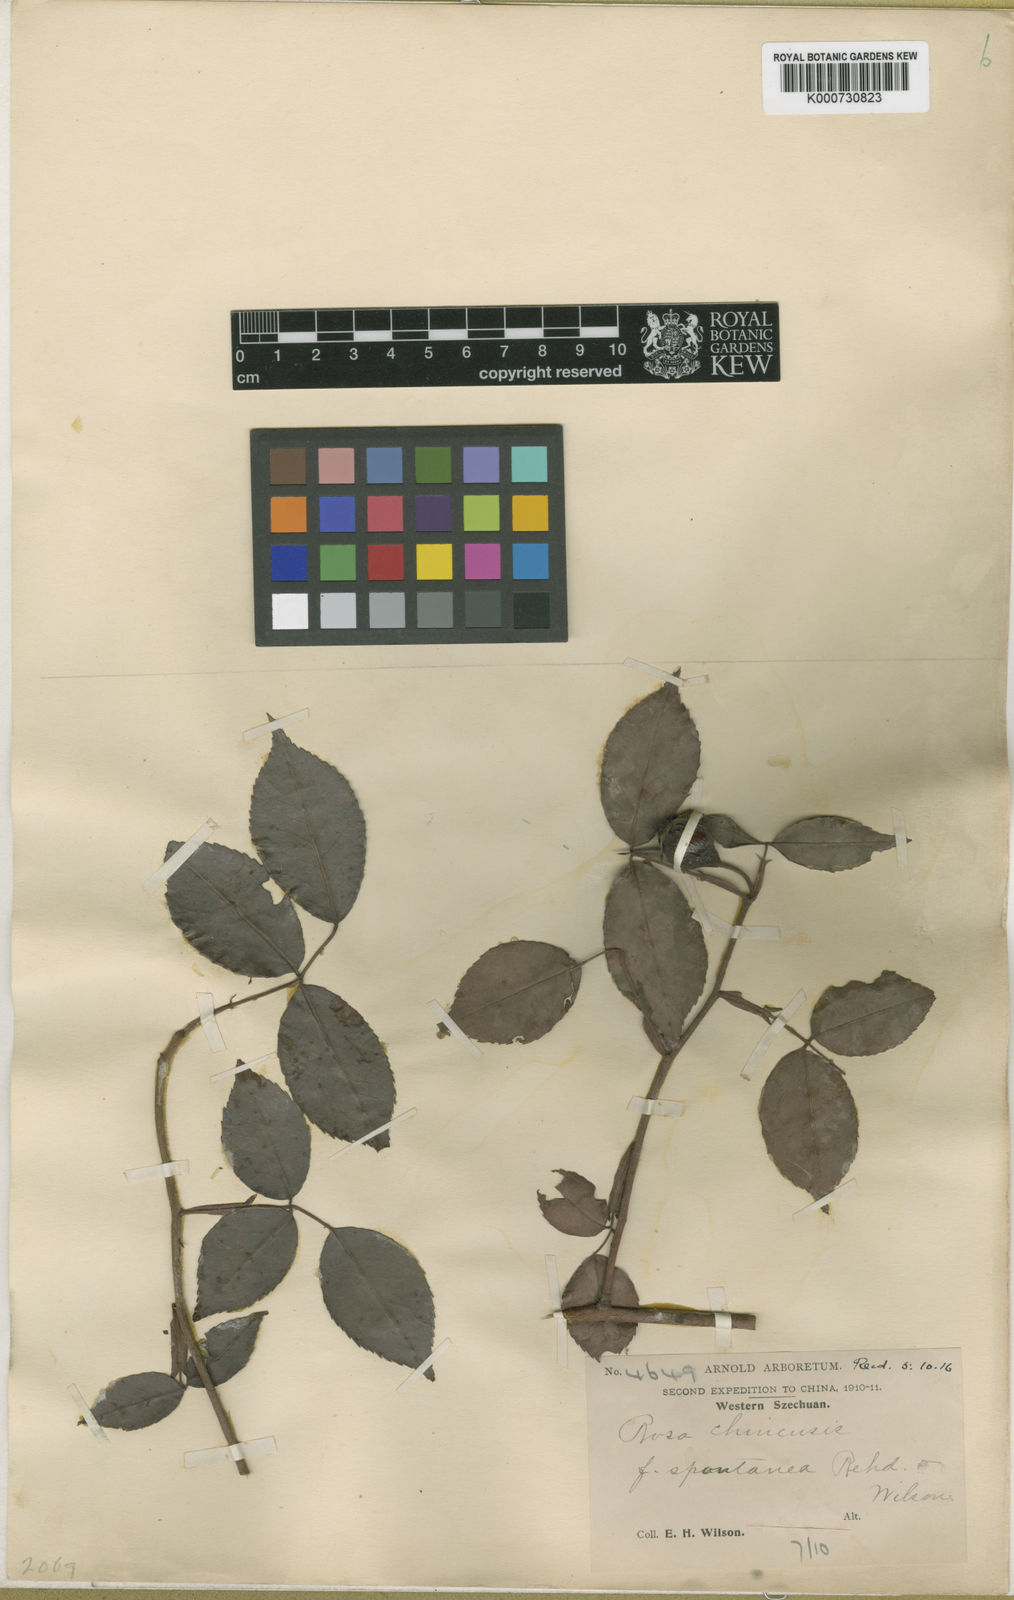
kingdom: Plantae
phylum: Tracheophyta
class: Magnoliopsida
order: Rosales
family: Rosaceae
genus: Rosa
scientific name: Rosa chinensis
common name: China rose
